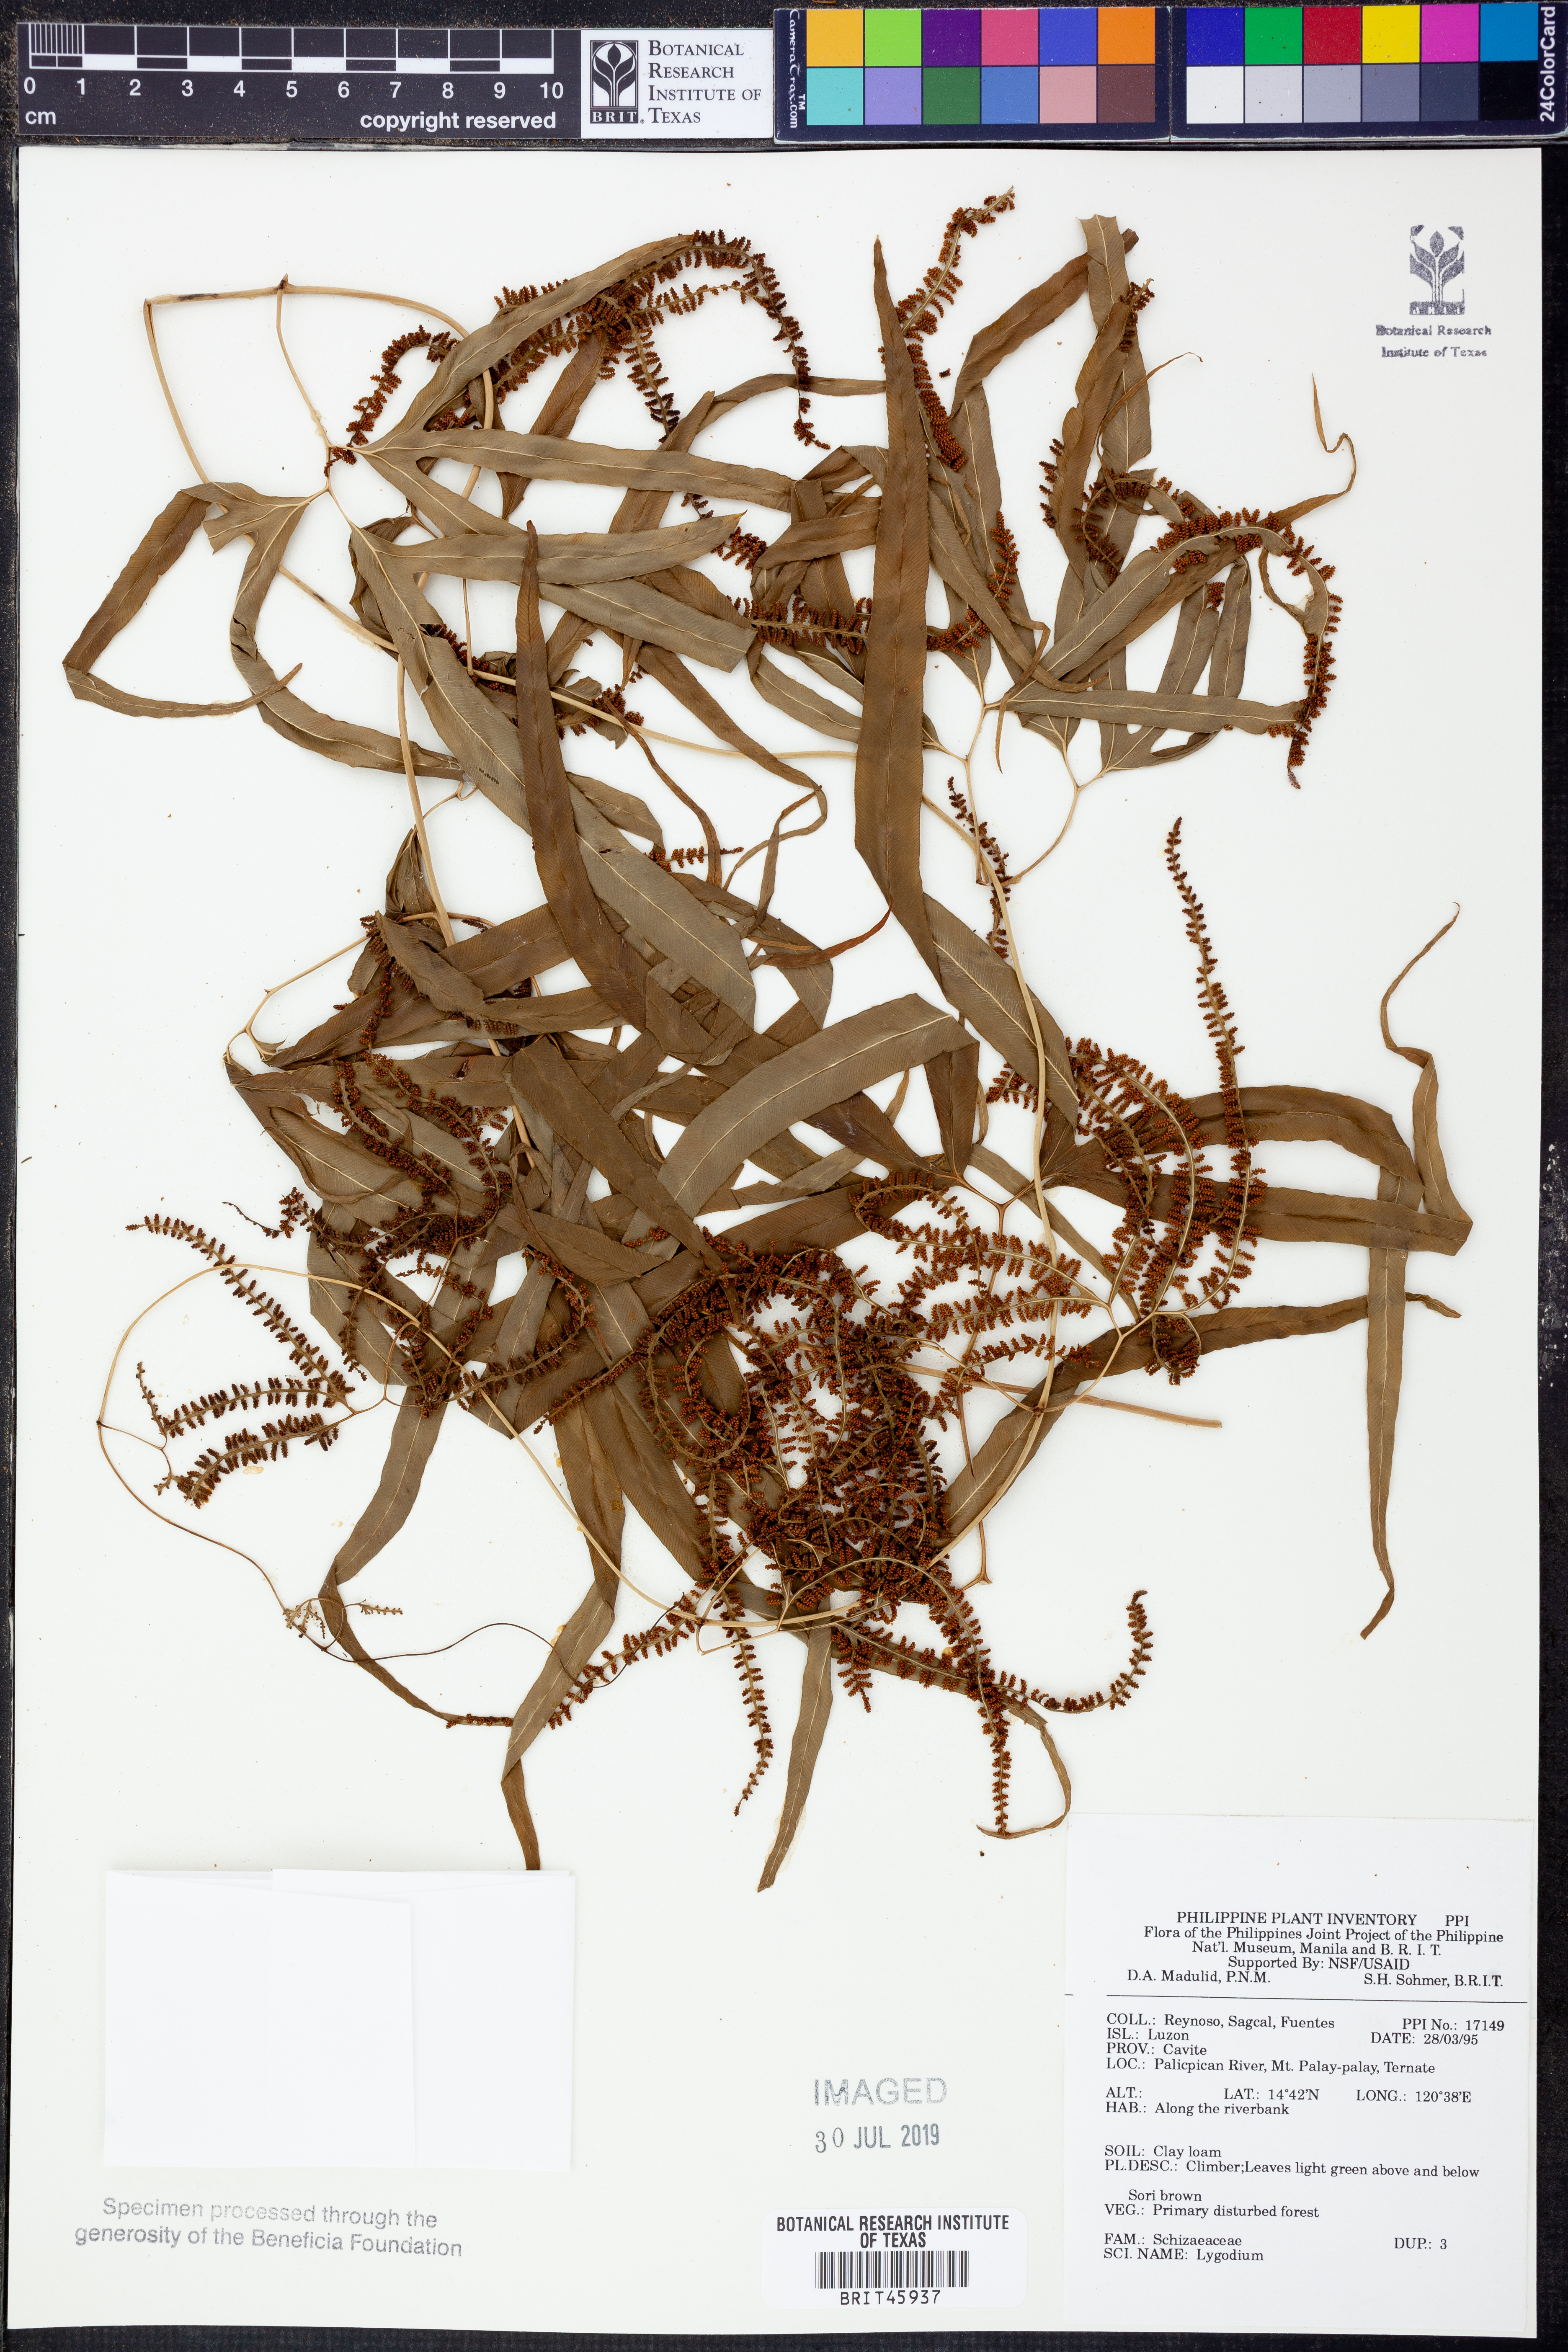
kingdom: Plantae
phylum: Tracheophyta
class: Polypodiopsida
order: Schizaeales
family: Lygodiaceae
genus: Lygodium
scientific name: Lygodium
